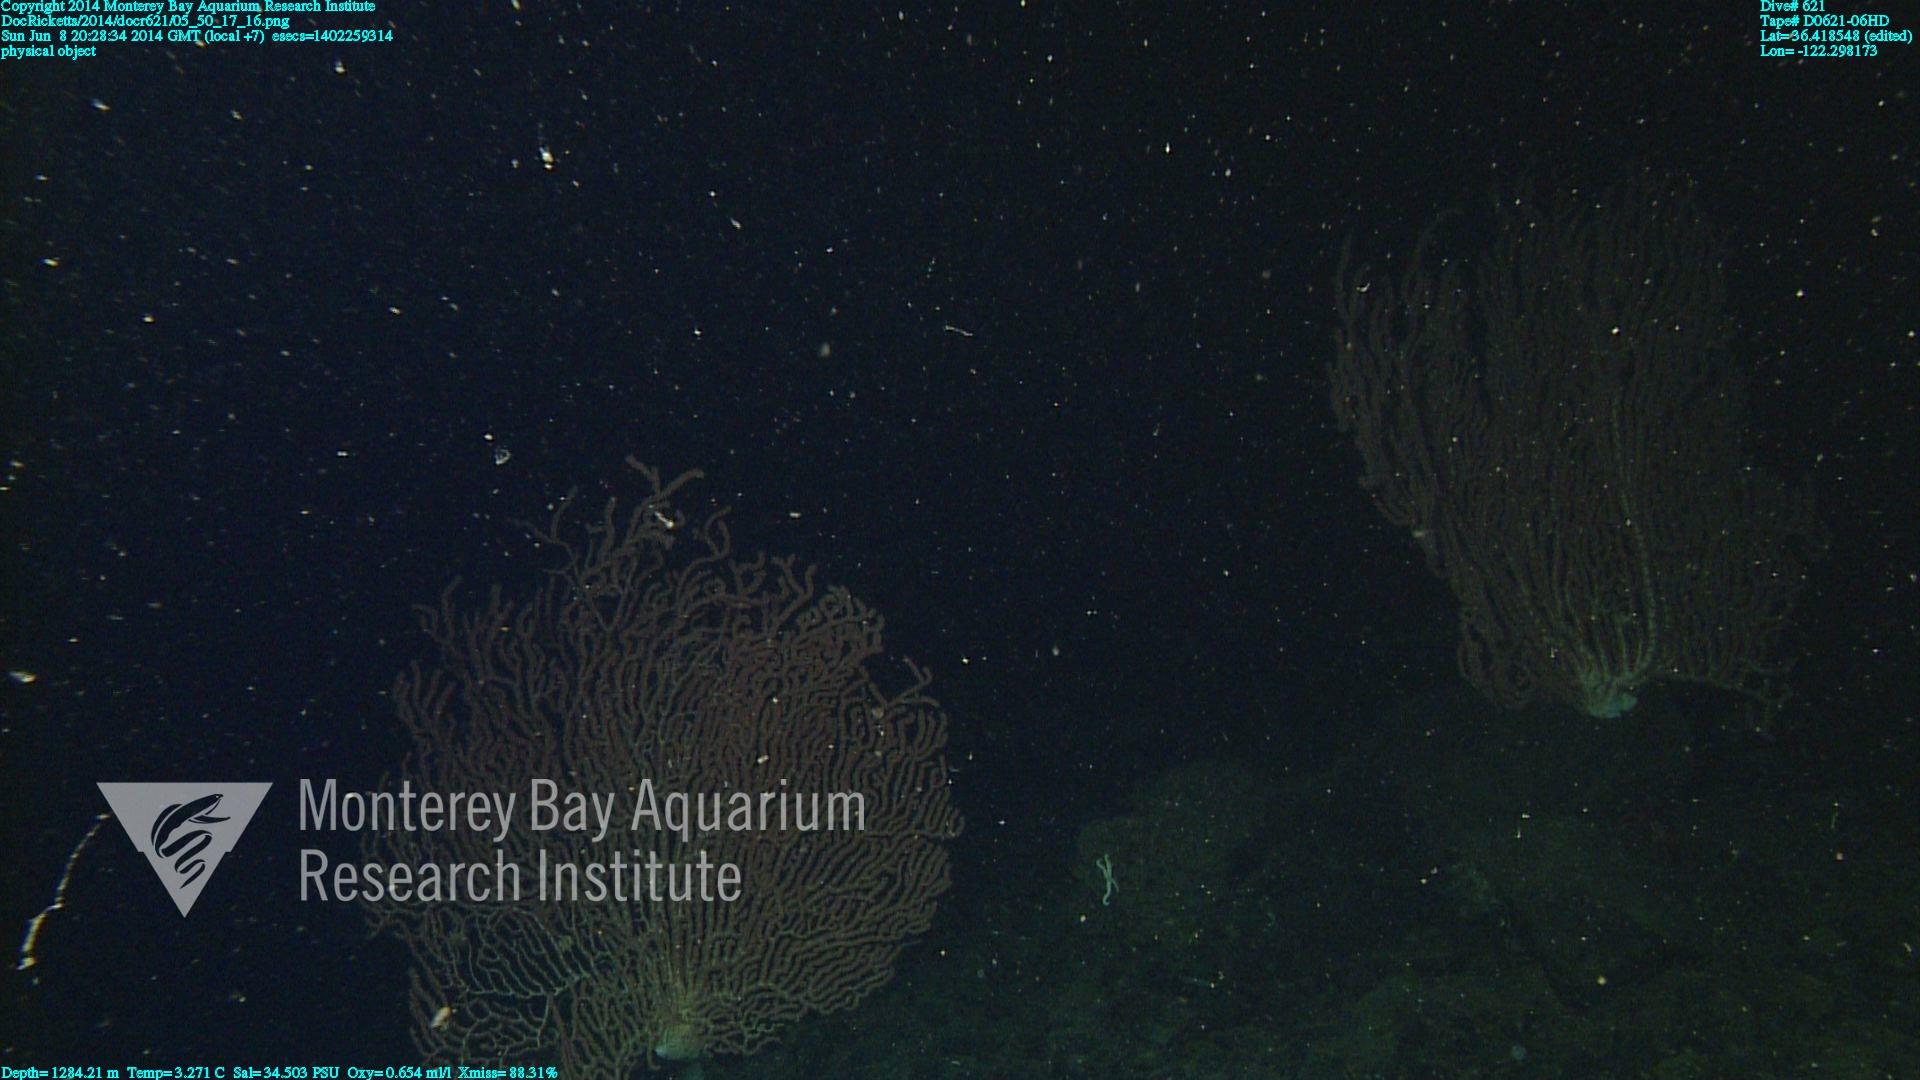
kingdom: Animalia
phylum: Cnidaria
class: Anthozoa
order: Scleralcyonacea
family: Keratoisididae
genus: Keratoisis
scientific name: Keratoisis
